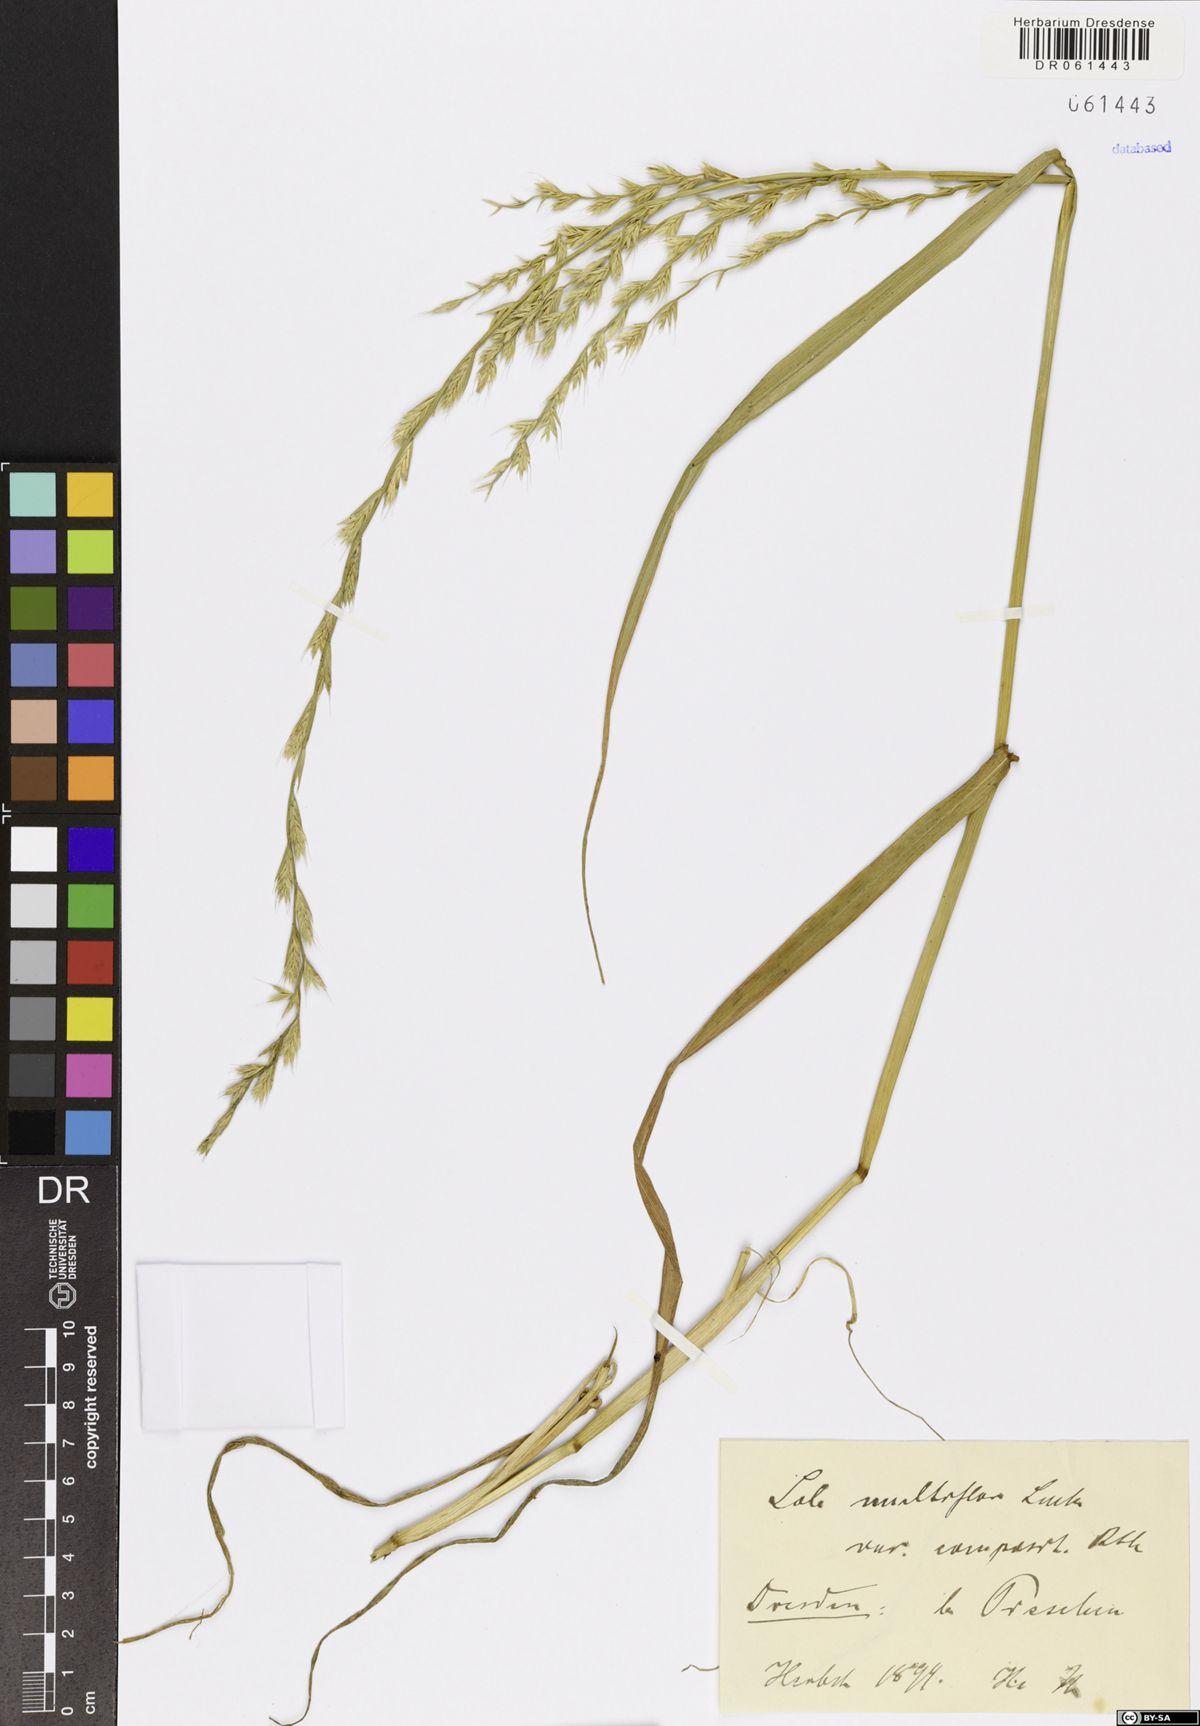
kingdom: Plantae
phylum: Tracheophyta
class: Liliopsida
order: Poales
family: Poaceae
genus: Lolium
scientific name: Lolium multiflorum
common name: Annual ryegrass
